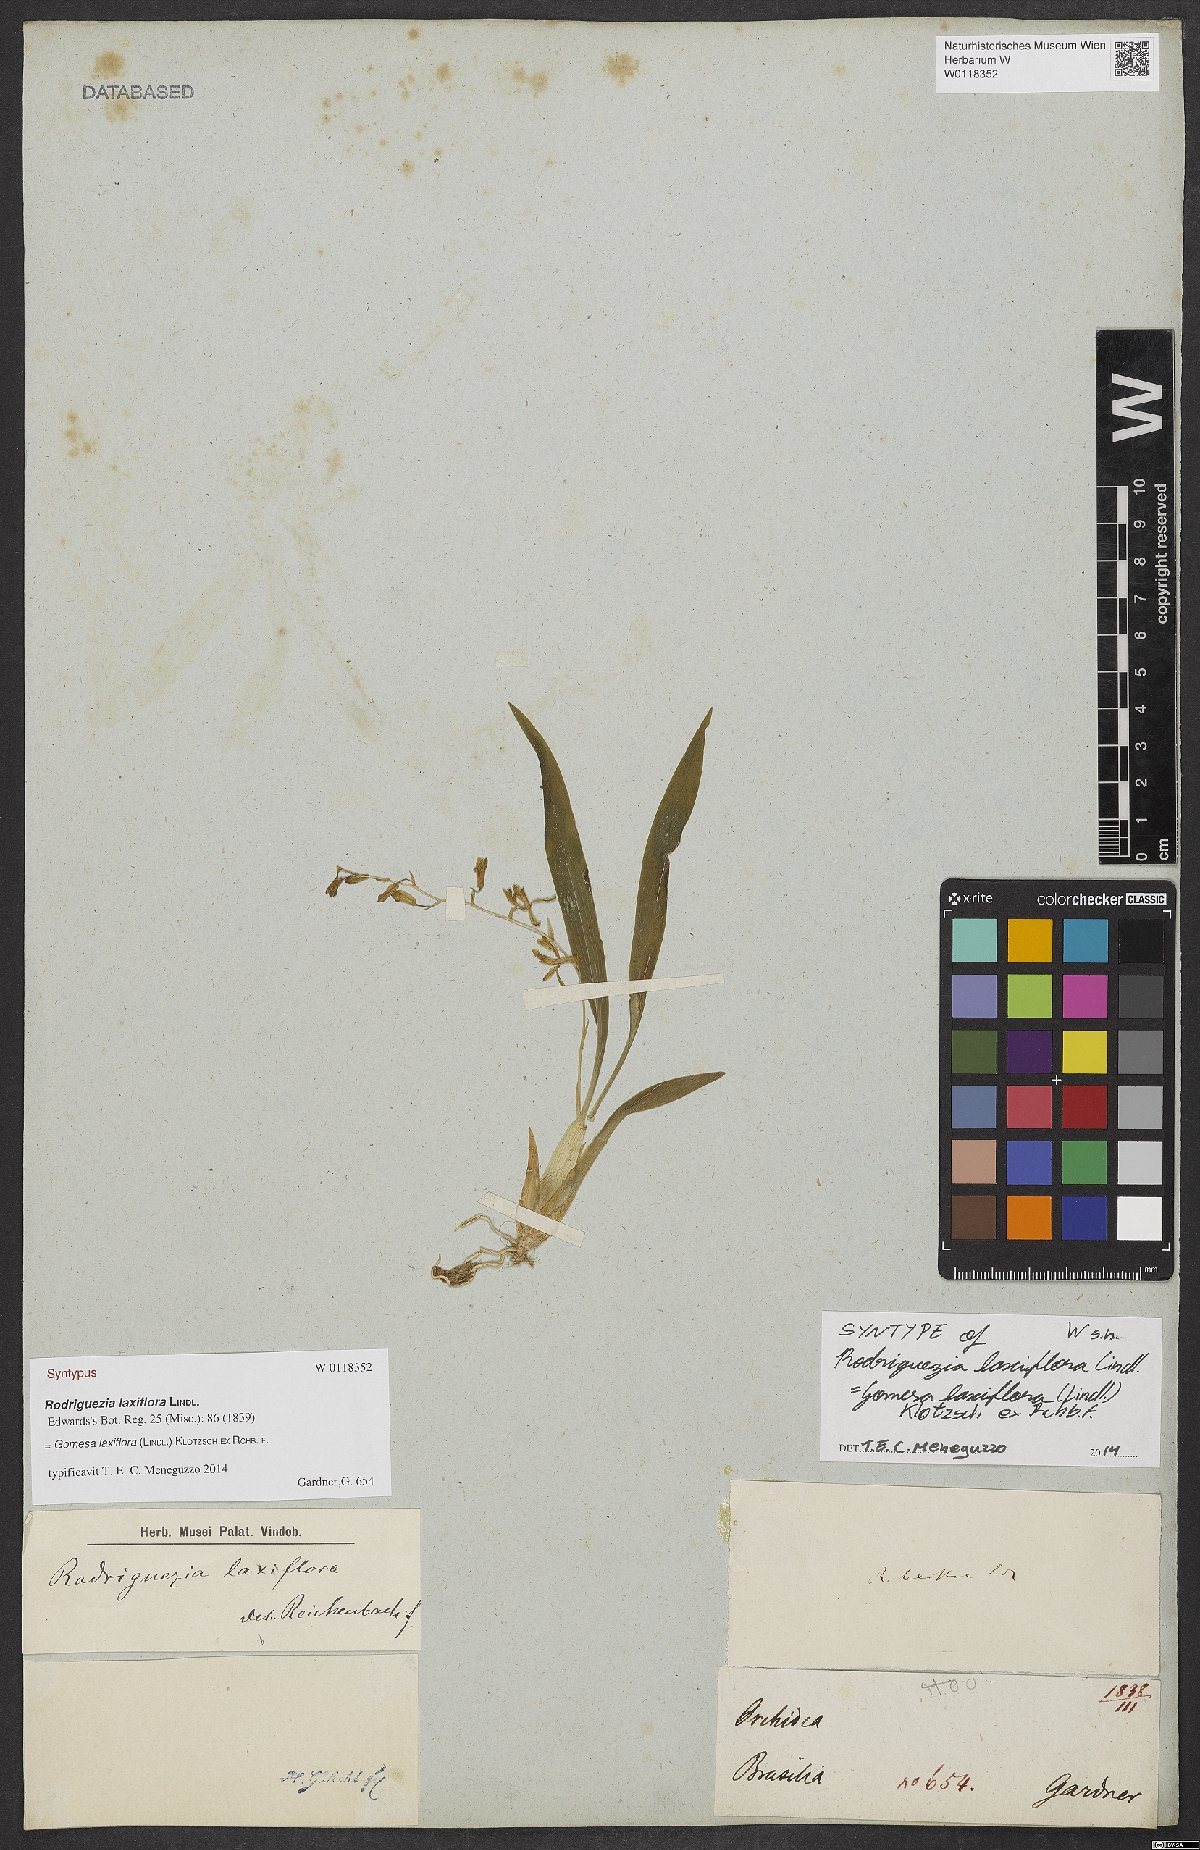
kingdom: Plantae
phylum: Tracheophyta
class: Liliopsida
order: Asparagales
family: Orchidaceae
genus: Gomesa
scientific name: Gomesa laxiflora
